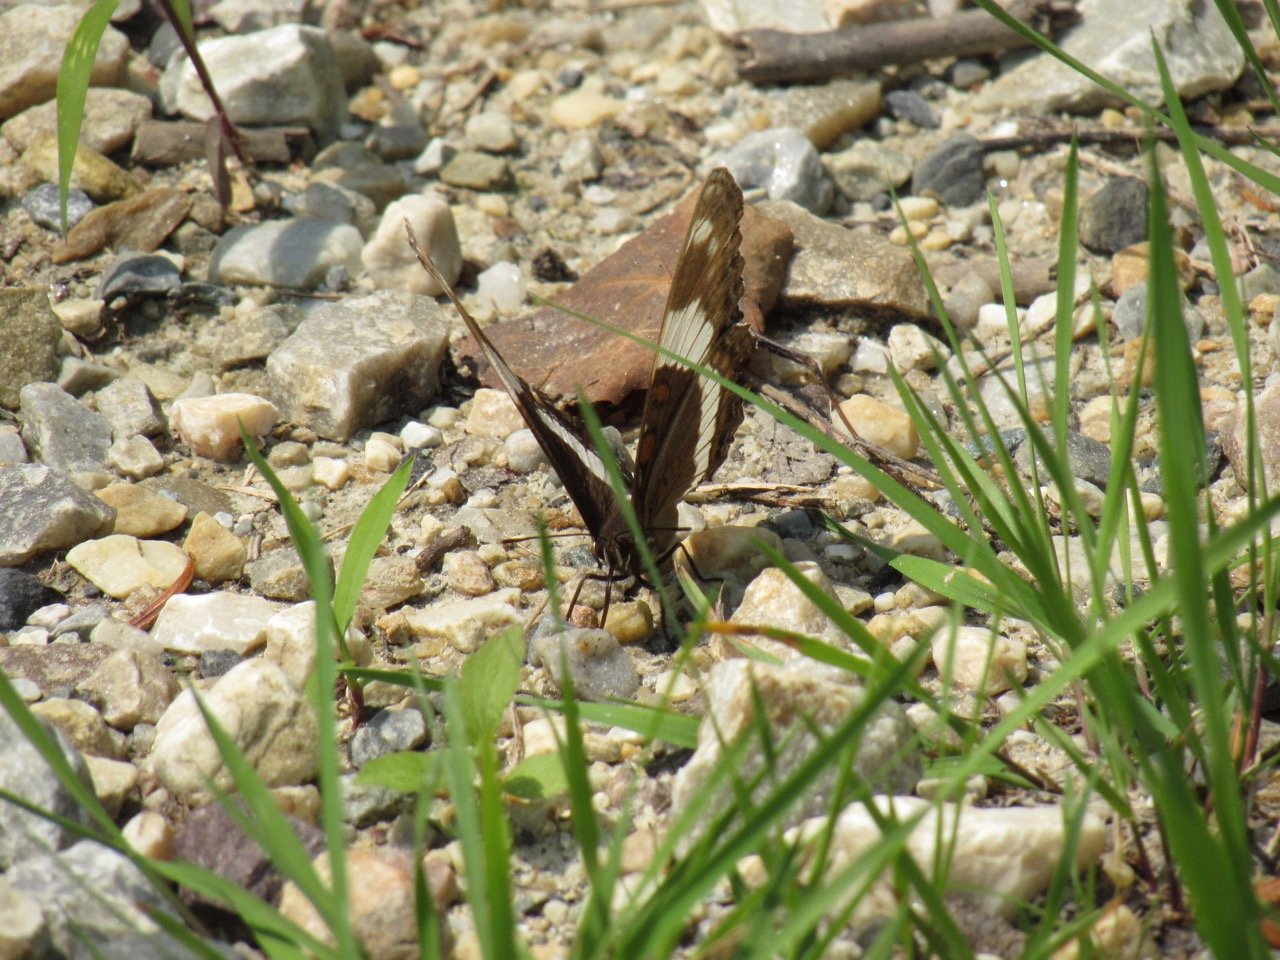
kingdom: Animalia
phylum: Arthropoda
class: Insecta
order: Lepidoptera
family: Nymphalidae
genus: Limenitis
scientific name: Limenitis arthemis
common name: Red-spotted Admiral
